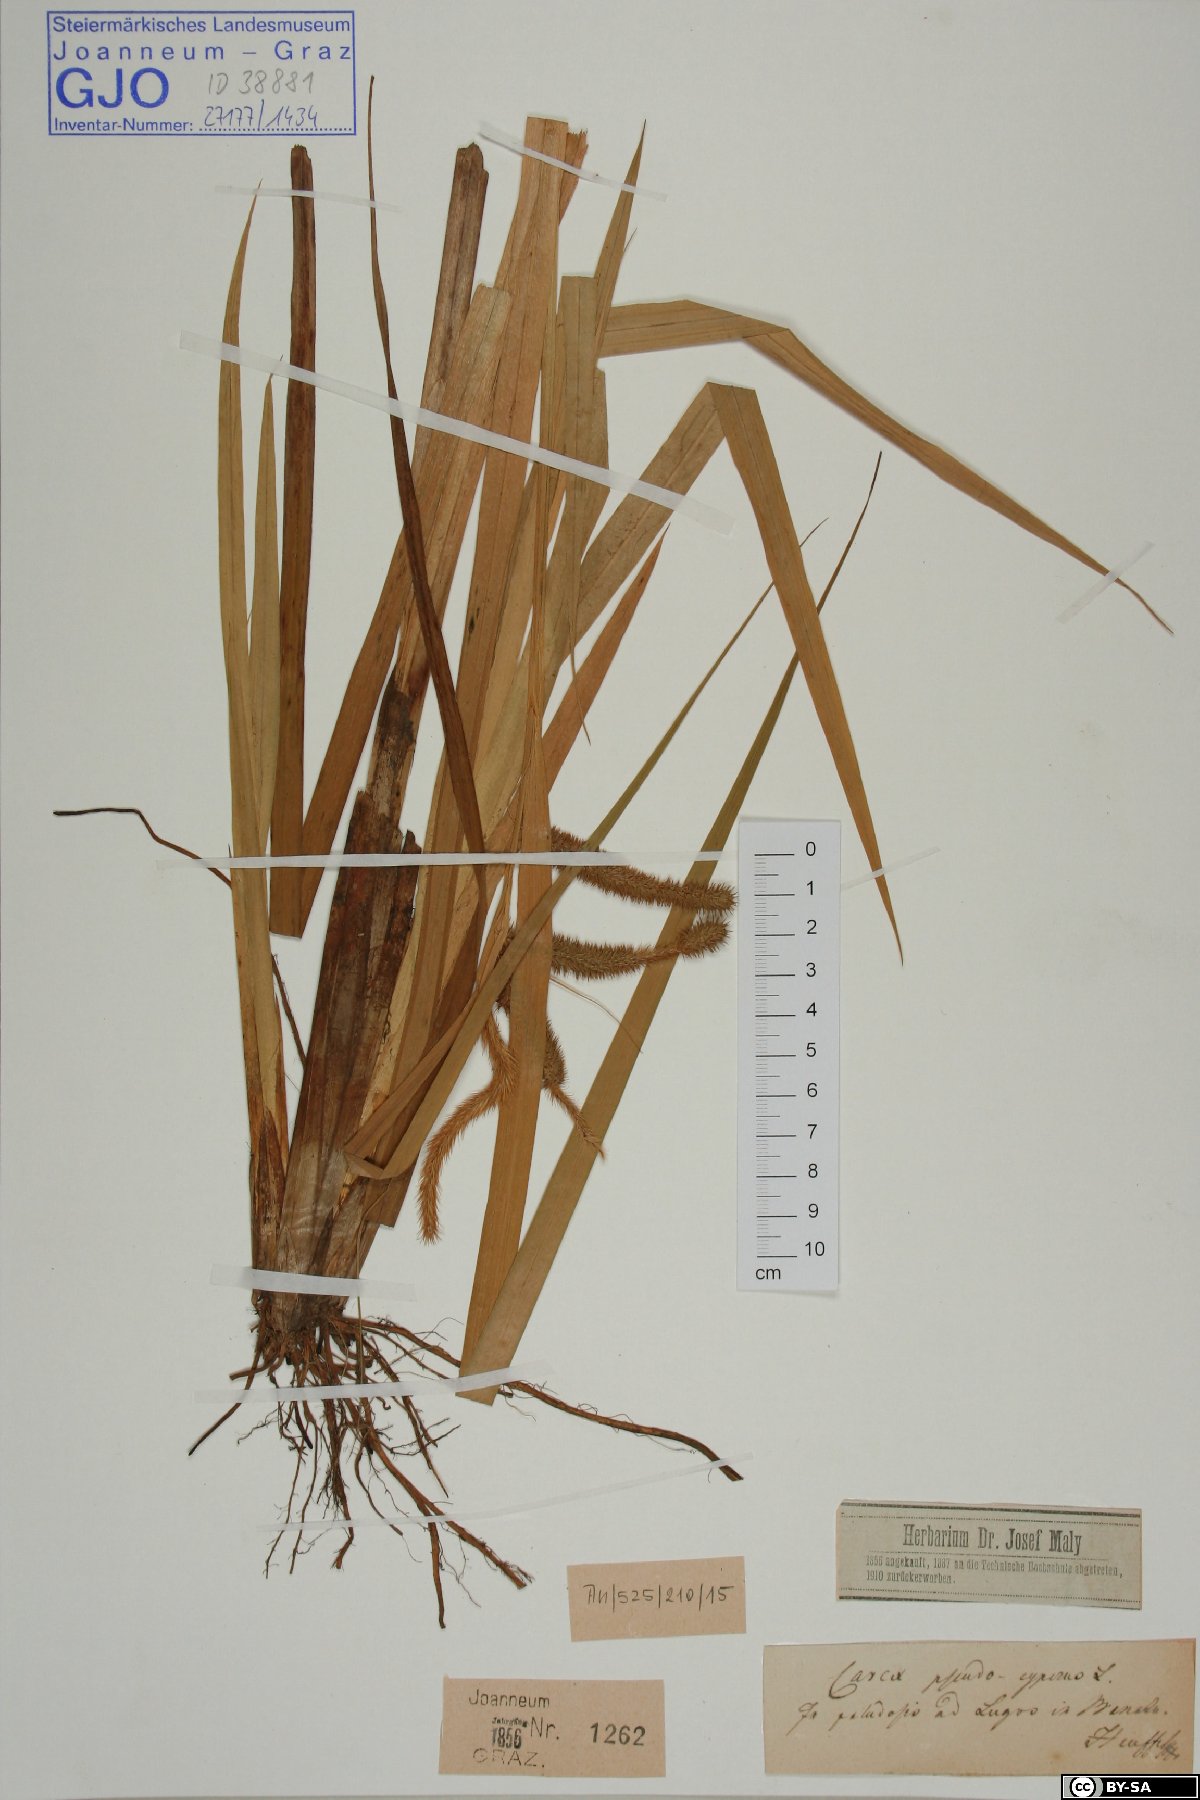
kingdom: Plantae
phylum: Tracheophyta
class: Liliopsida
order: Poales
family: Cyperaceae
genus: Carex
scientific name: Carex pseudocyperus
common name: Cyperus sedge
